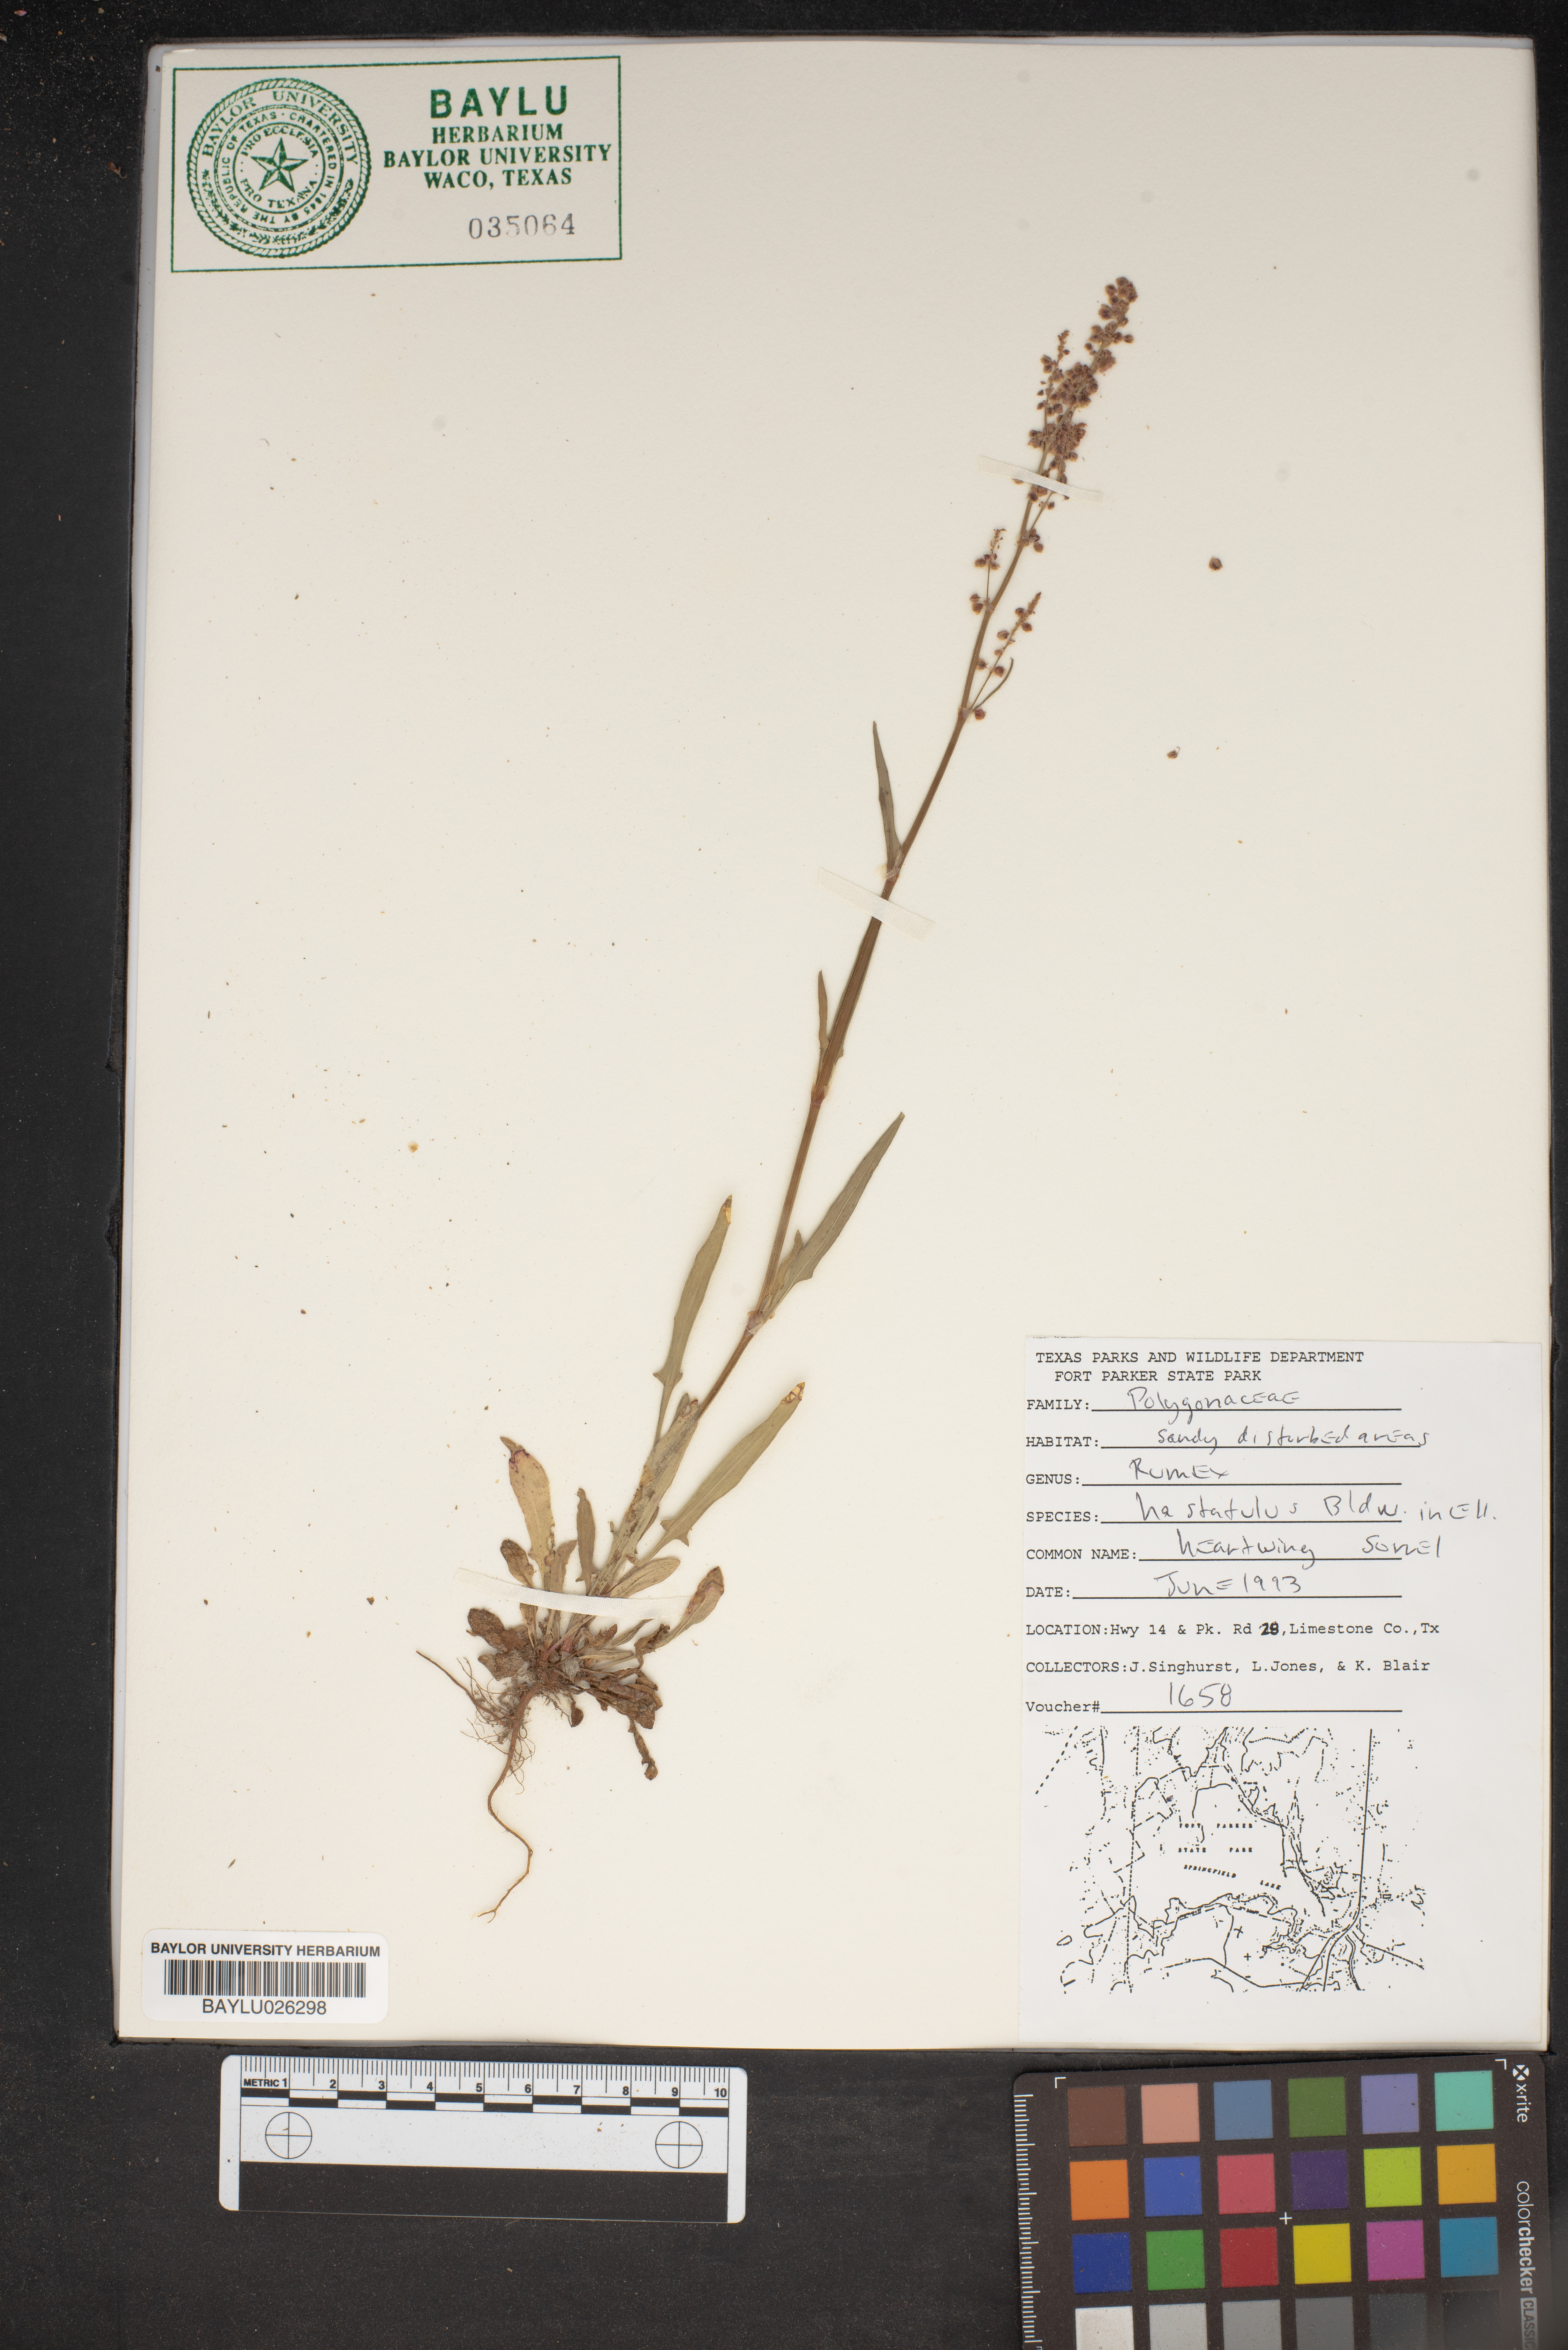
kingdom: Plantae
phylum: Tracheophyta
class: Magnoliopsida
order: Caryophyllales
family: Polygonaceae
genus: Rumex
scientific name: Rumex hastatulus
